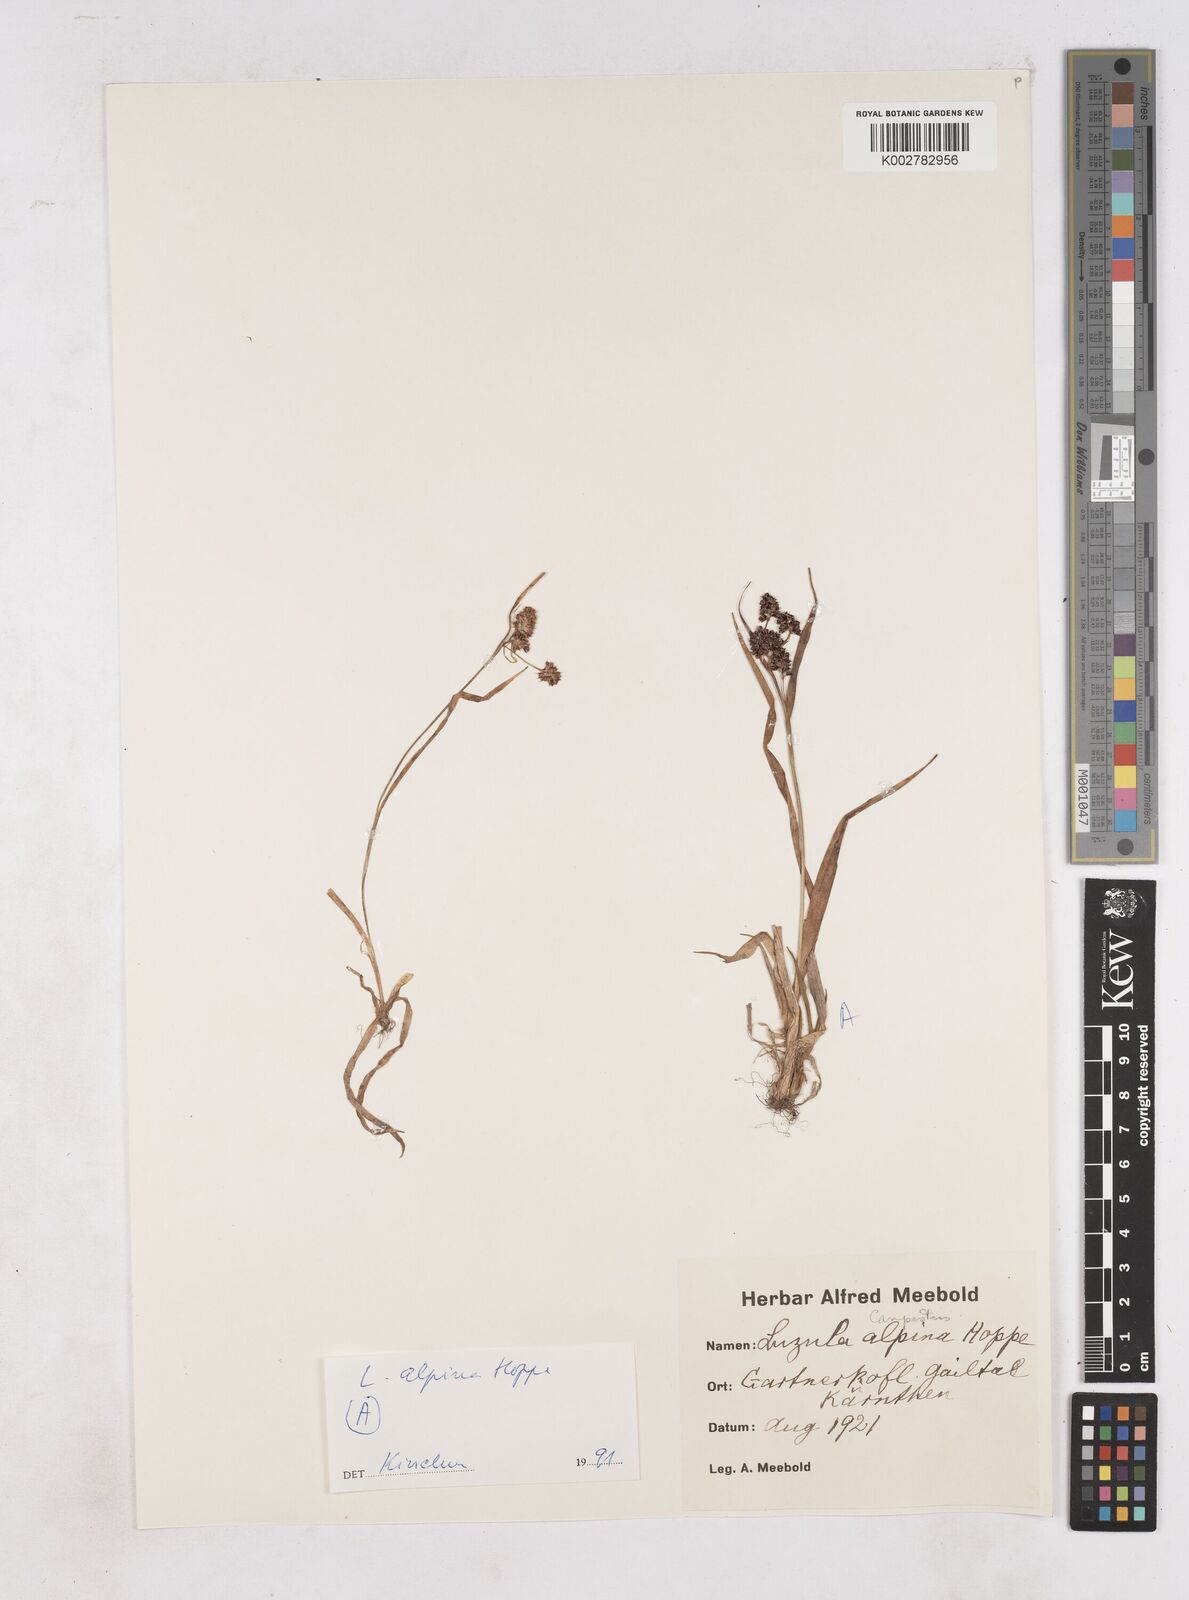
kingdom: Plantae
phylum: Tracheophyta
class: Liliopsida
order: Poales
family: Juncaceae
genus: Luzula
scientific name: Luzula campestris
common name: Field wood-rush
